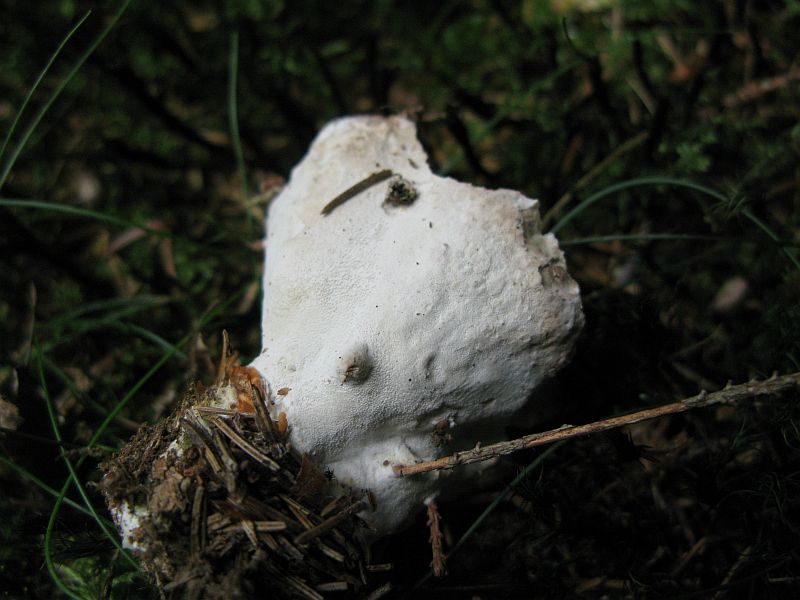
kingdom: Fungi
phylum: Basidiomycota
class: Agaricomycetes
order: Polyporales
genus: Calcipostia
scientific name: Calcipostia guttulata
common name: dråbe-kødporesvamp
